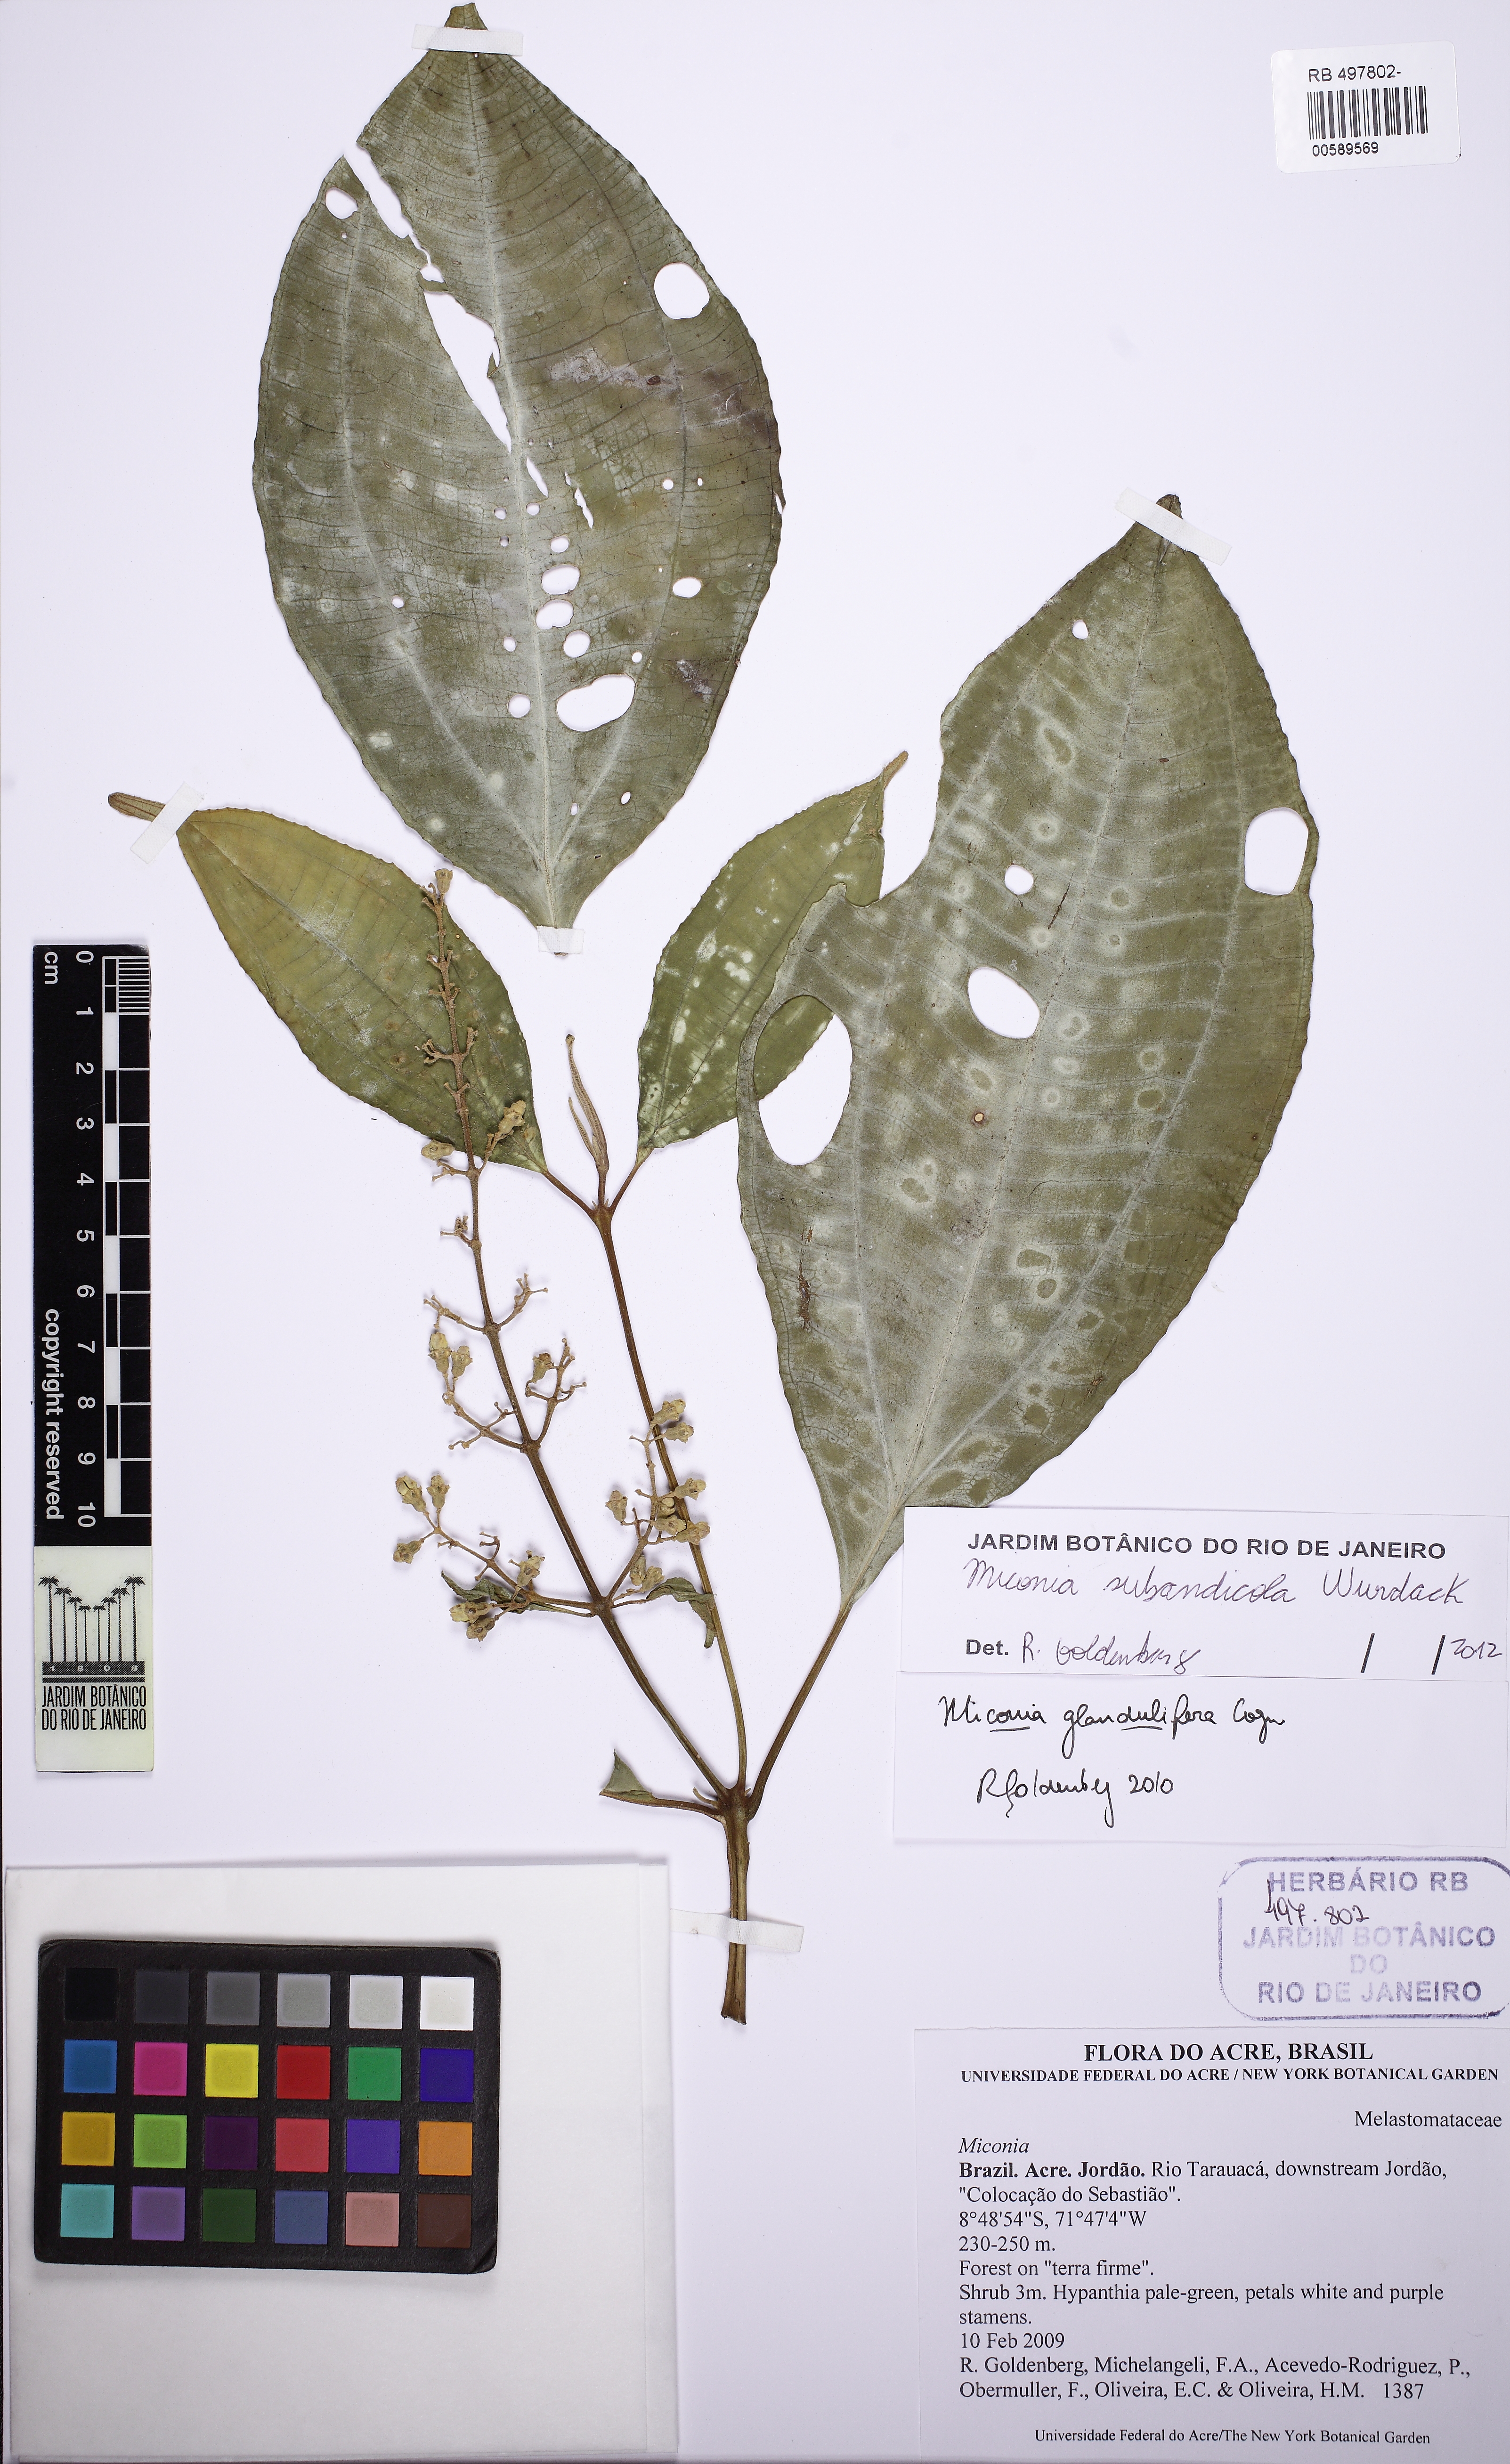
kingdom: Plantae
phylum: Tracheophyta
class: Magnoliopsida
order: Myrtales
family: Melastomataceae
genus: Miconia
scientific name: Miconia subandicola
